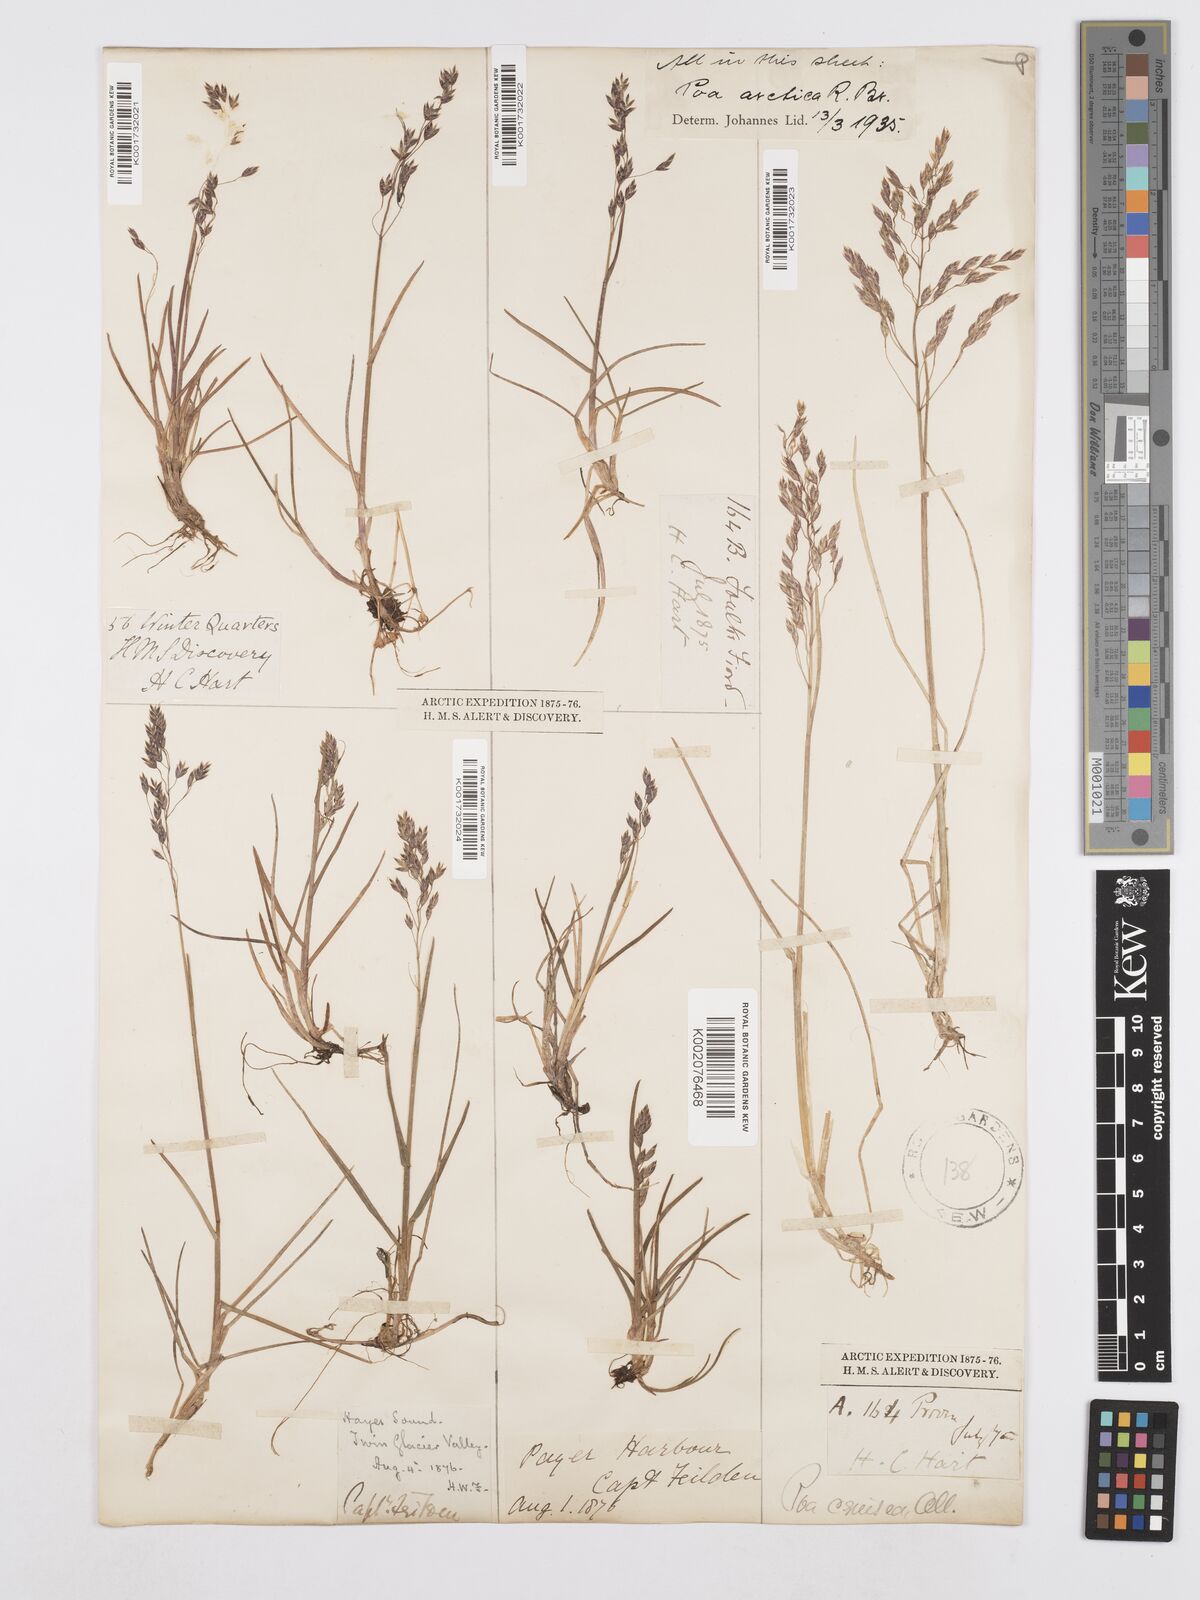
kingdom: Plantae
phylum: Tracheophyta
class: Liliopsida
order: Poales
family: Poaceae
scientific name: Poaceae
